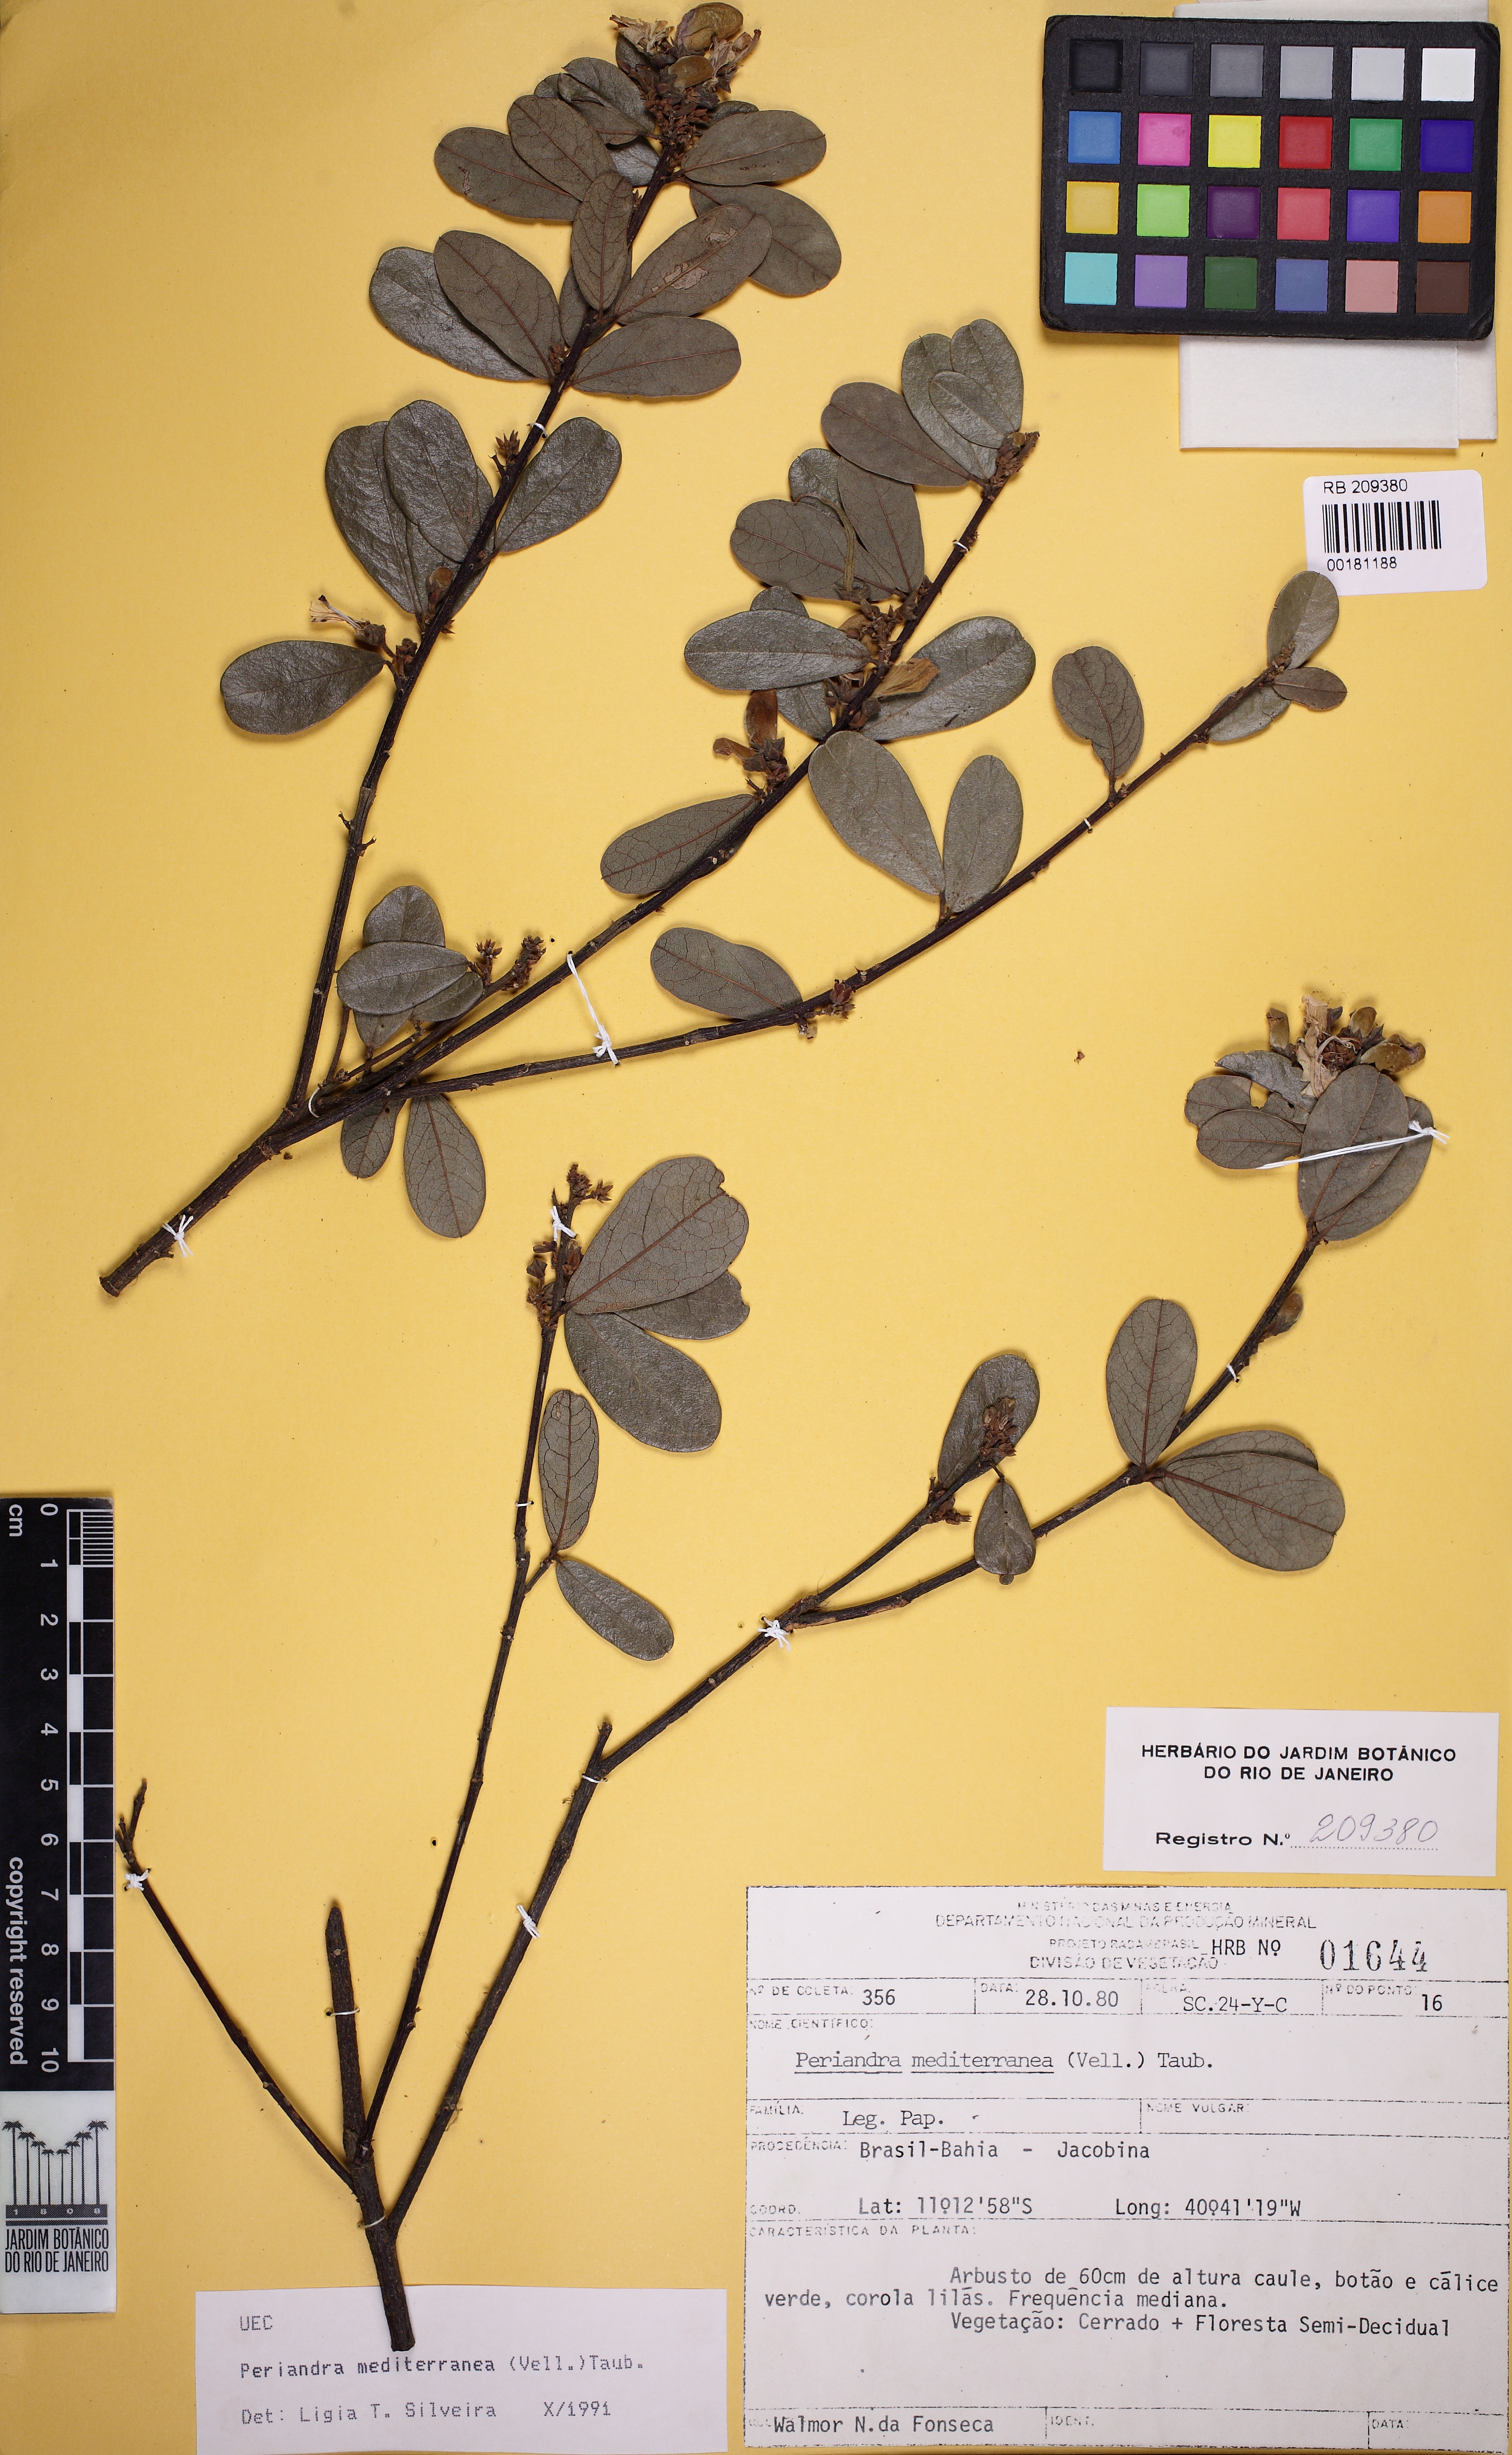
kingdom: Plantae
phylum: Tracheophyta
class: Magnoliopsida
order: Fabales
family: Fabaceae
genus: Periandra
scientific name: Periandra mediterranea
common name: Brazilian licorice
